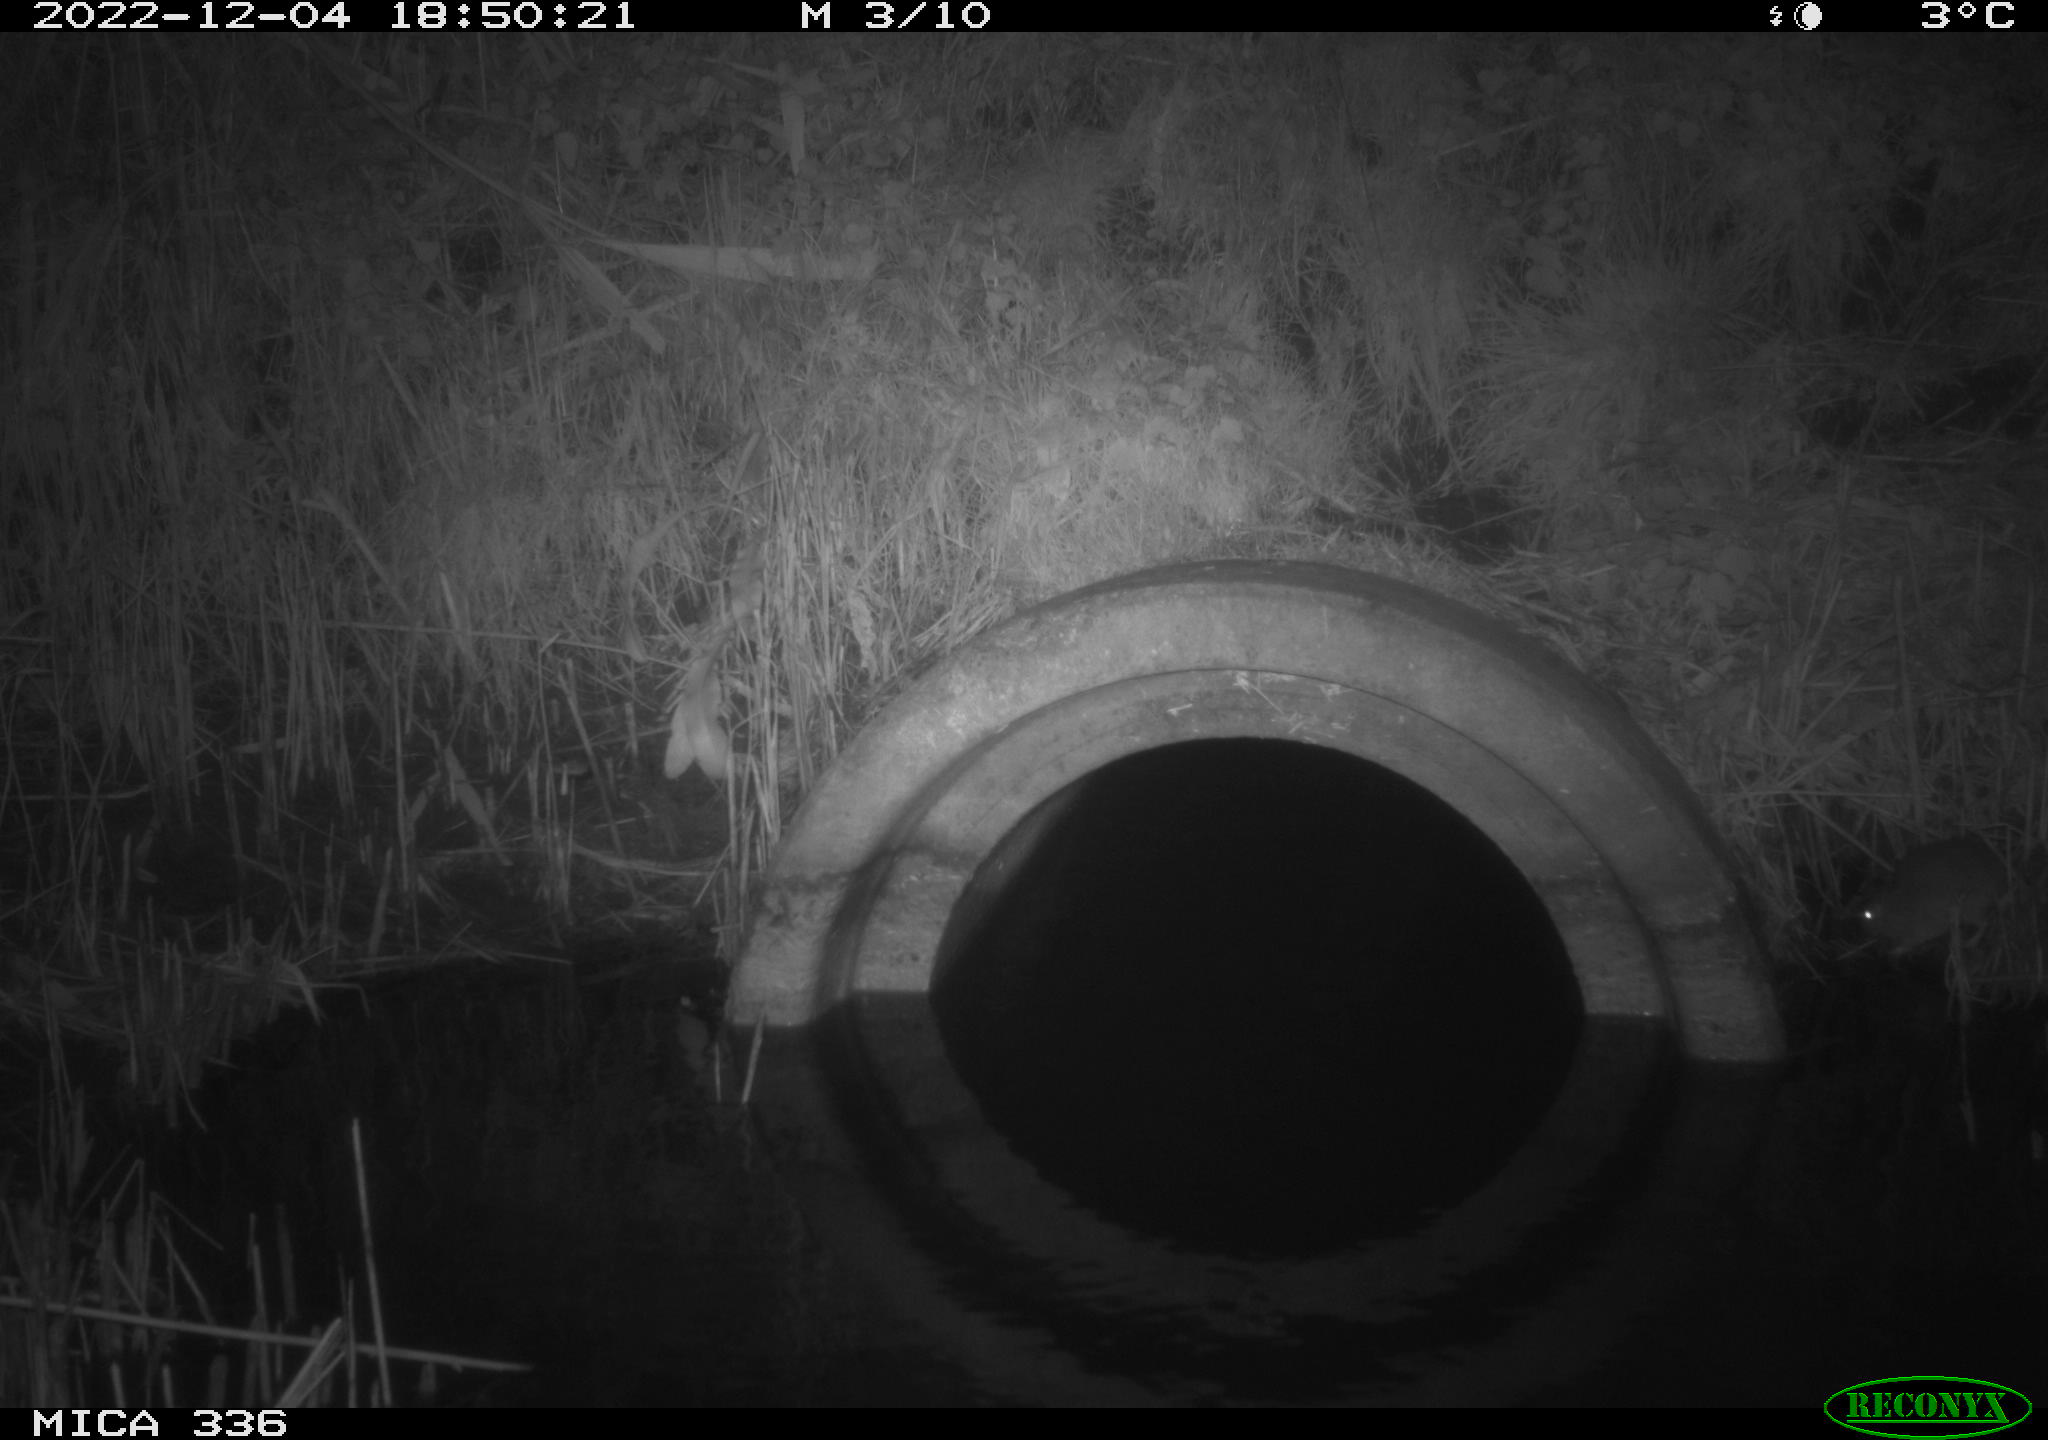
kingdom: Animalia
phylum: Chordata
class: Mammalia
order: Rodentia
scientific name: Rodentia
